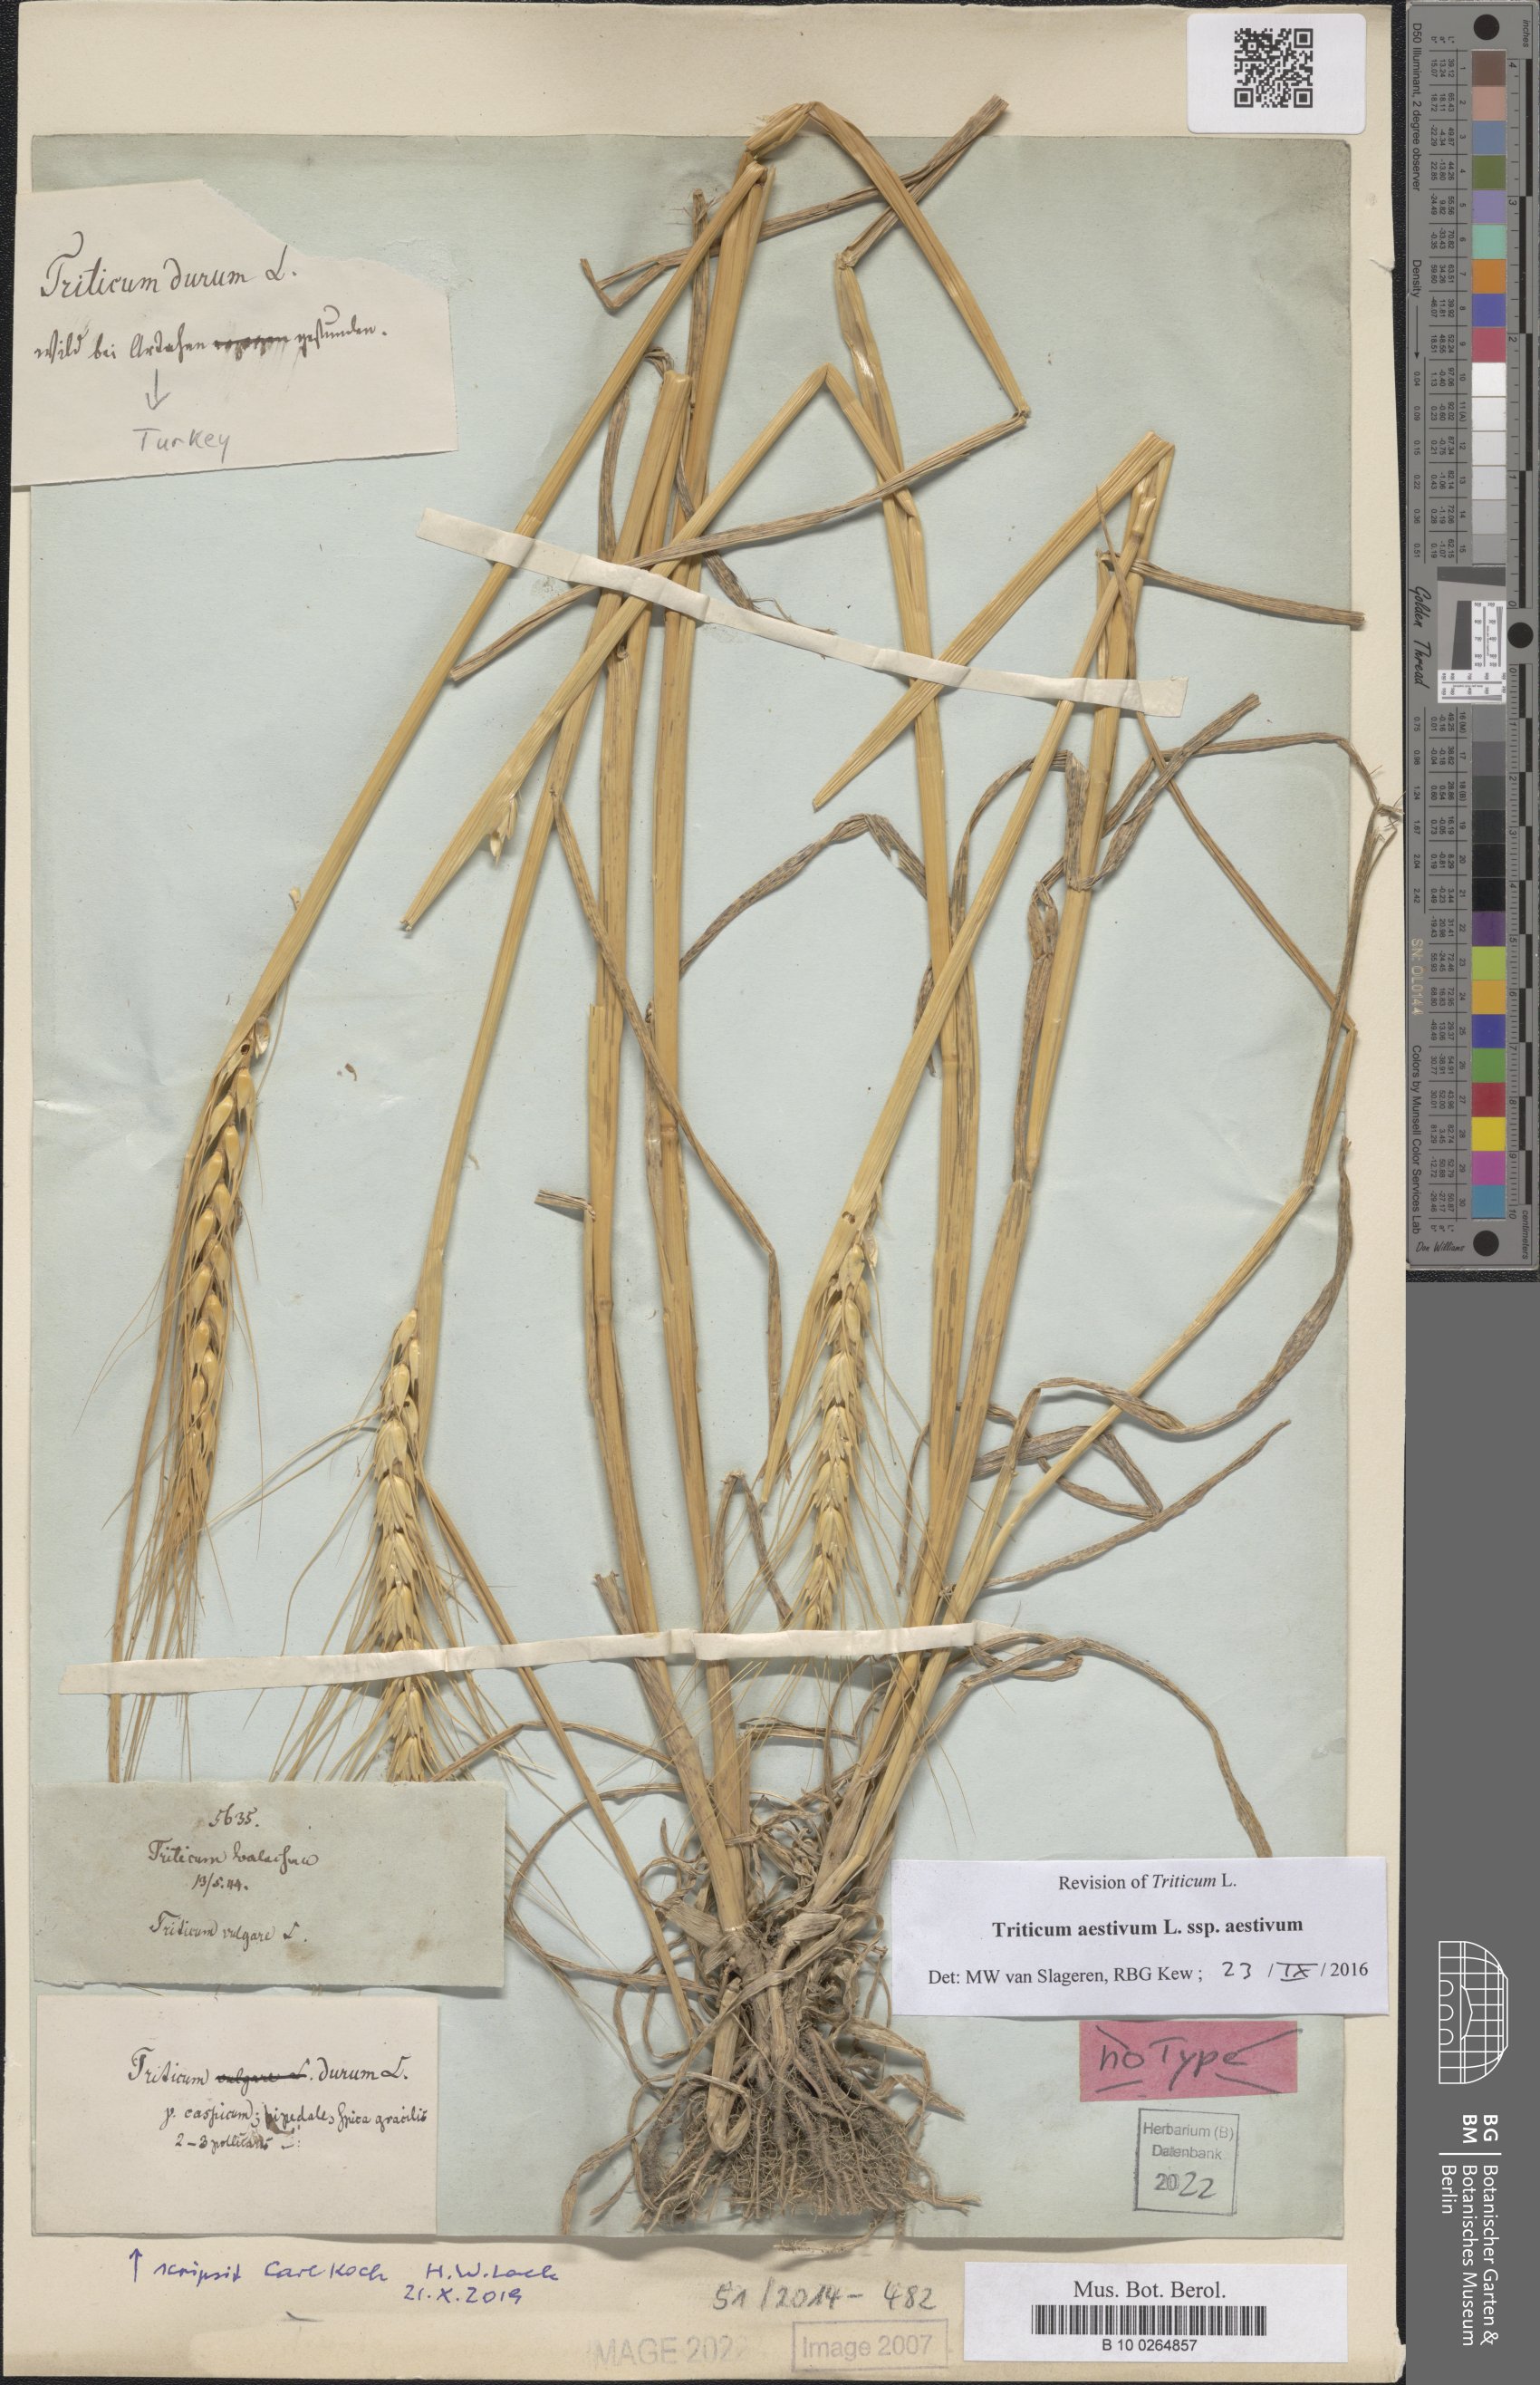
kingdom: Plantae
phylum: Tracheophyta
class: Liliopsida
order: Poales
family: Poaceae
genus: Triticum
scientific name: Triticum aestivum
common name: Common wheat
